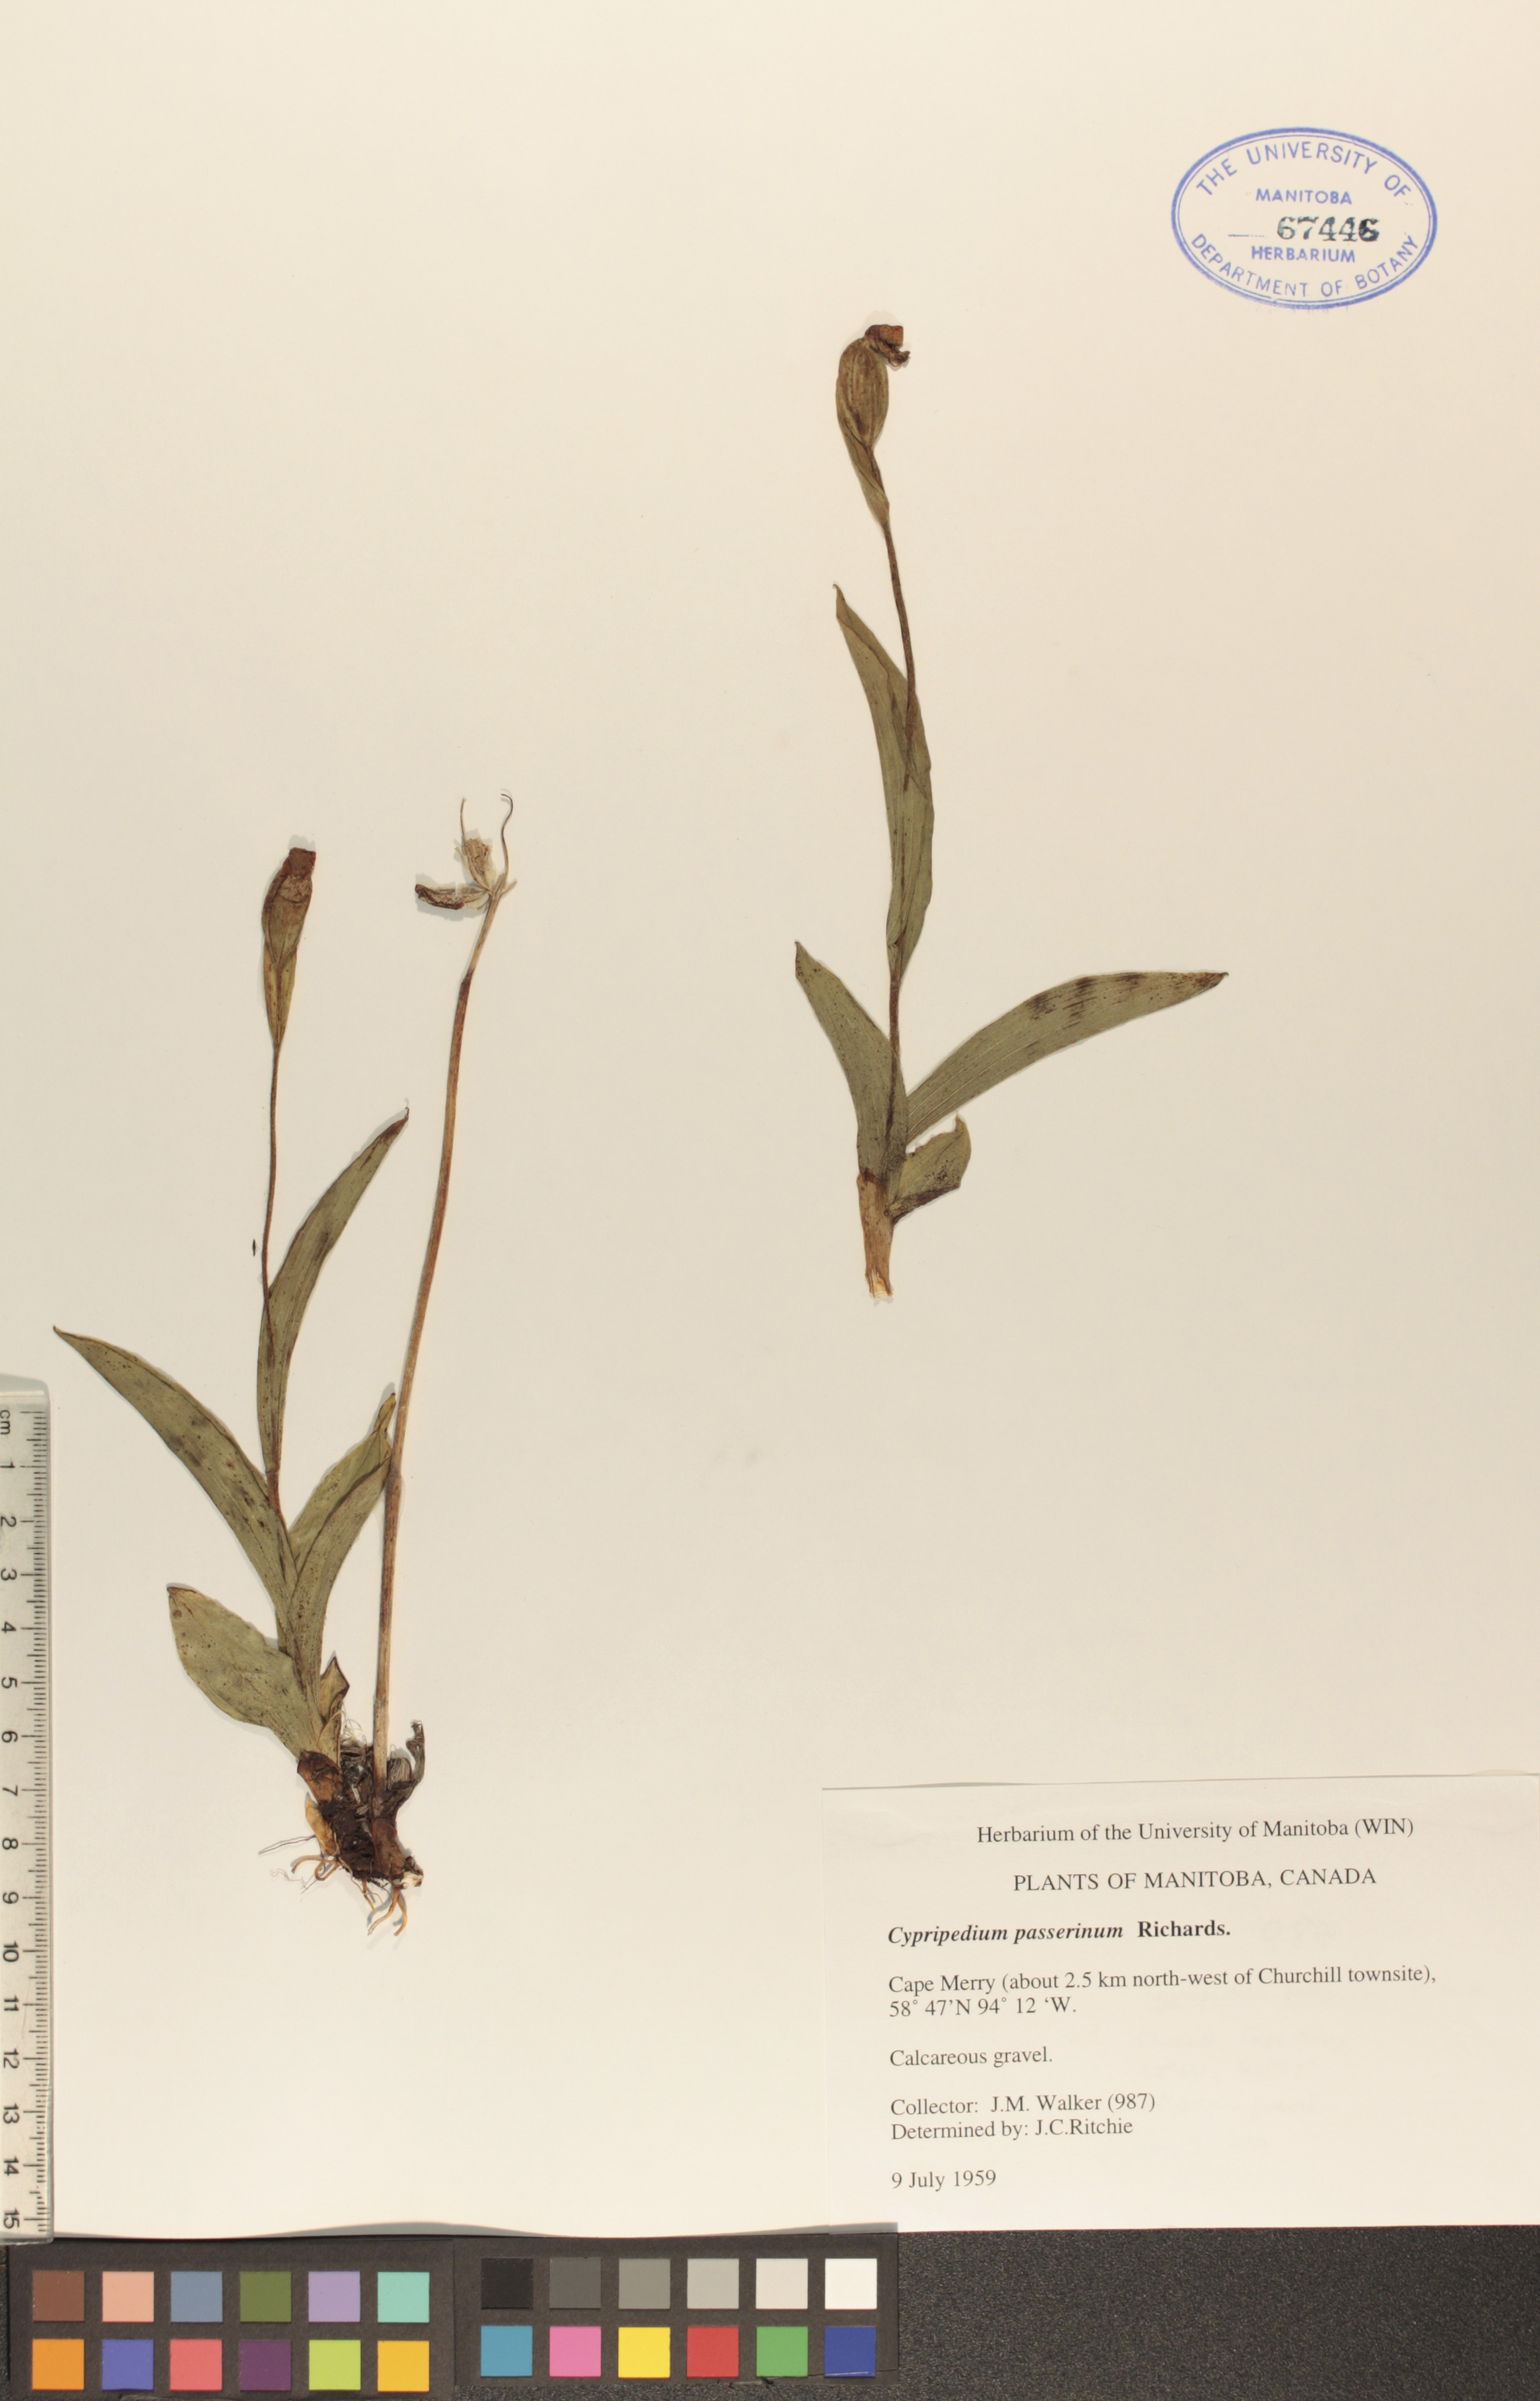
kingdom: Plantae
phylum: Tracheophyta
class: Liliopsida
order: Asparagales
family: Orchidaceae
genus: Cypripedium
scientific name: Cypripedium passerinum
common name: Sparrow's-egg lady's-slipper
